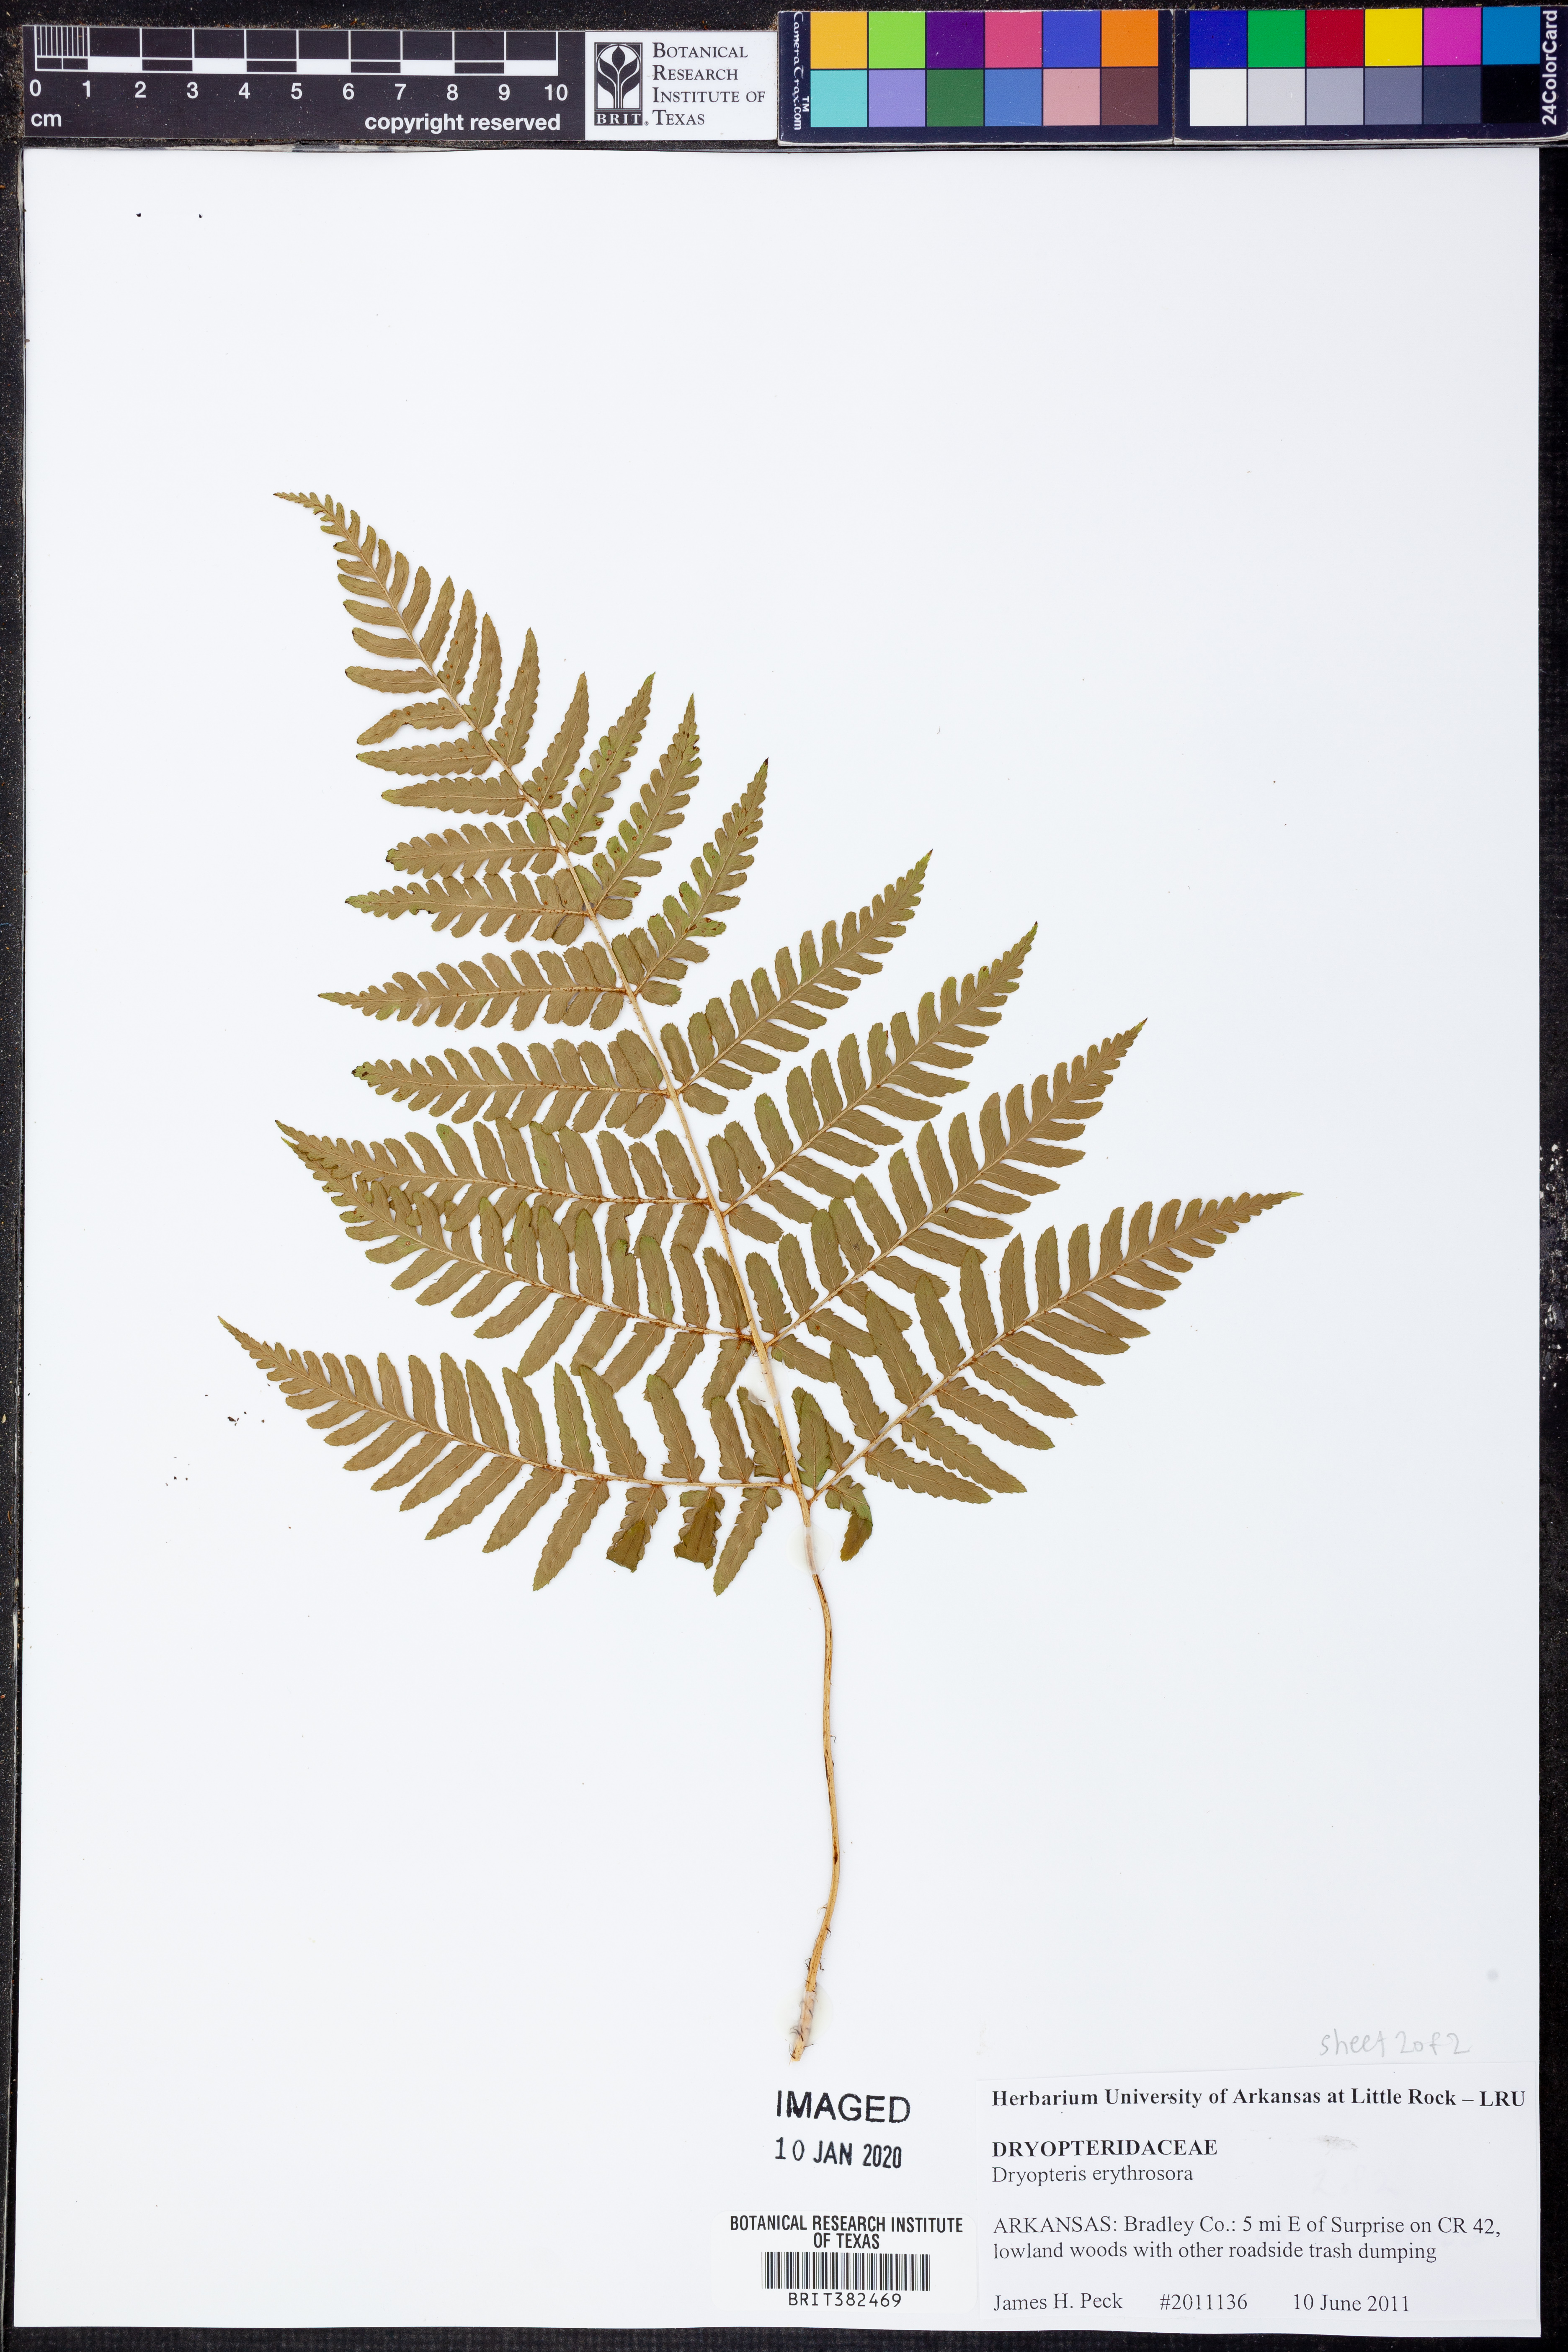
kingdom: Plantae
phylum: Tracheophyta
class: Polypodiopsida
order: Polypodiales
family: Dryopteridaceae
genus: Dryopteris
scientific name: Dryopteris erythrosora
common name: Autumn fern
